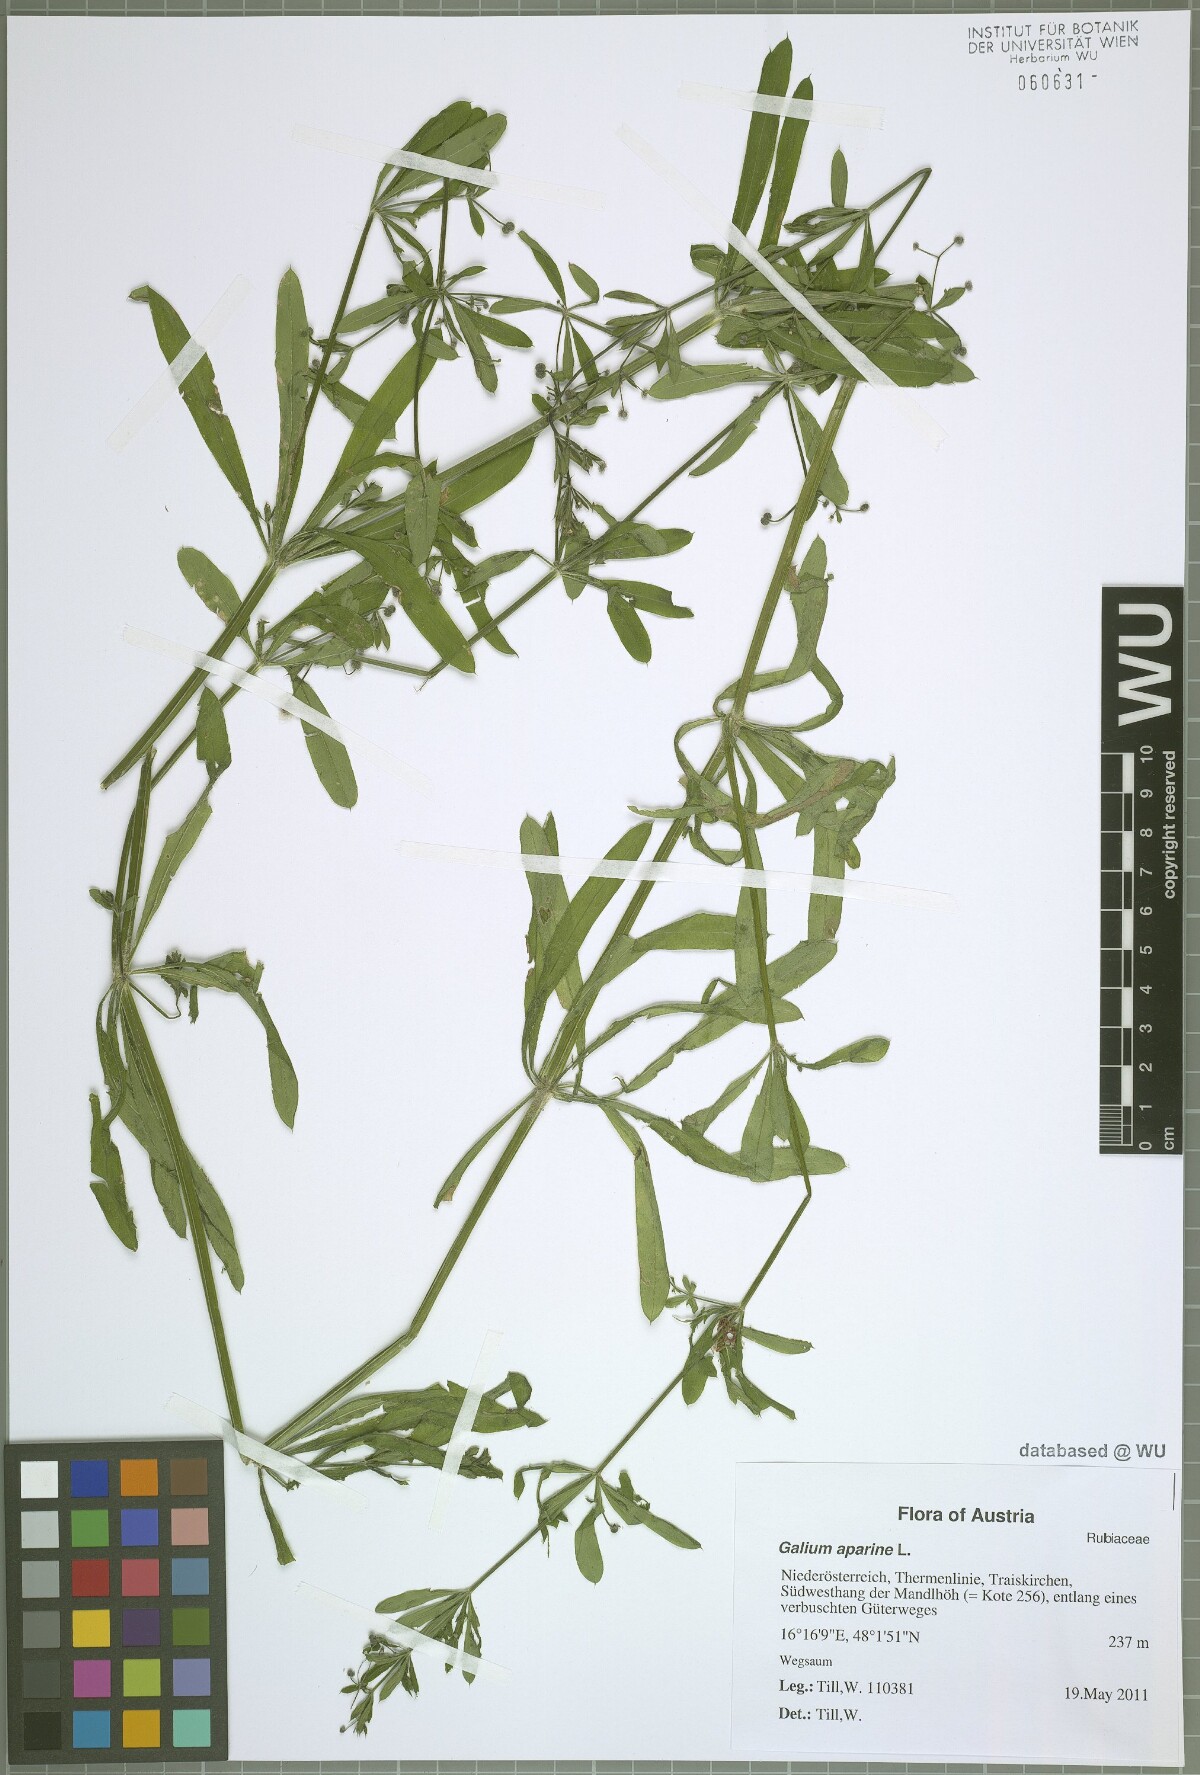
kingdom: Plantae
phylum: Tracheophyta
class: Magnoliopsida
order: Gentianales
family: Rubiaceae
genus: Galium
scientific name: Galium aparine
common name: Cleavers
